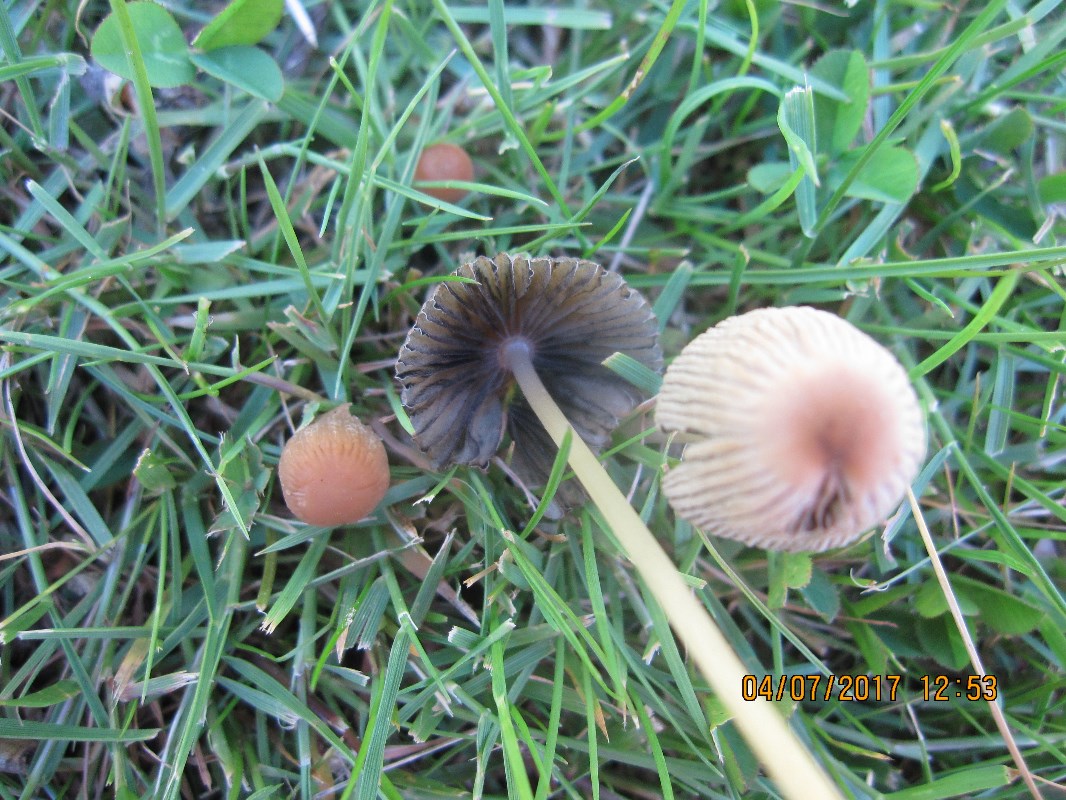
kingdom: Fungi
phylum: Basidiomycota
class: Agaricomycetes
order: Agaricales
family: Psathyrellaceae
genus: Parasola
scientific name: Parasola schroeteri
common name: bredsporet hjulhat
